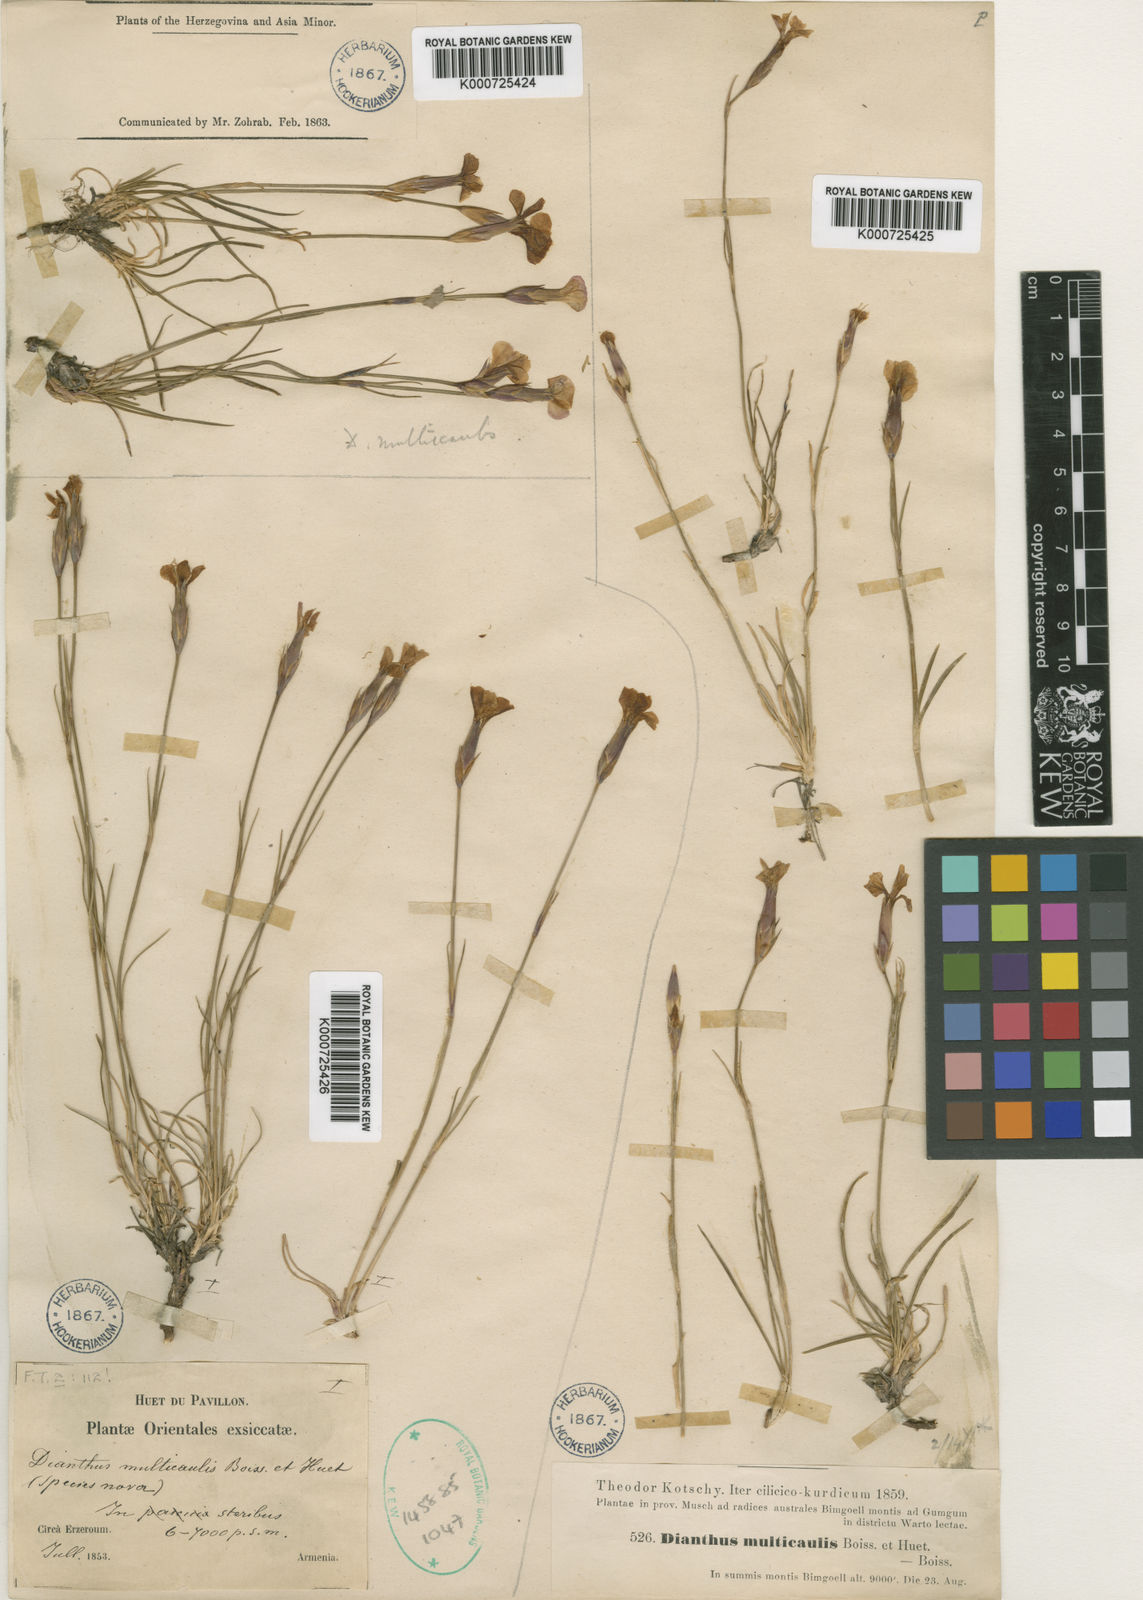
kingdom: Plantae
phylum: Tracheophyta
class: Magnoliopsida
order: Caryophyllales
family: Caryophyllaceae
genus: Dianthus
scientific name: Dianthus cretaceus
